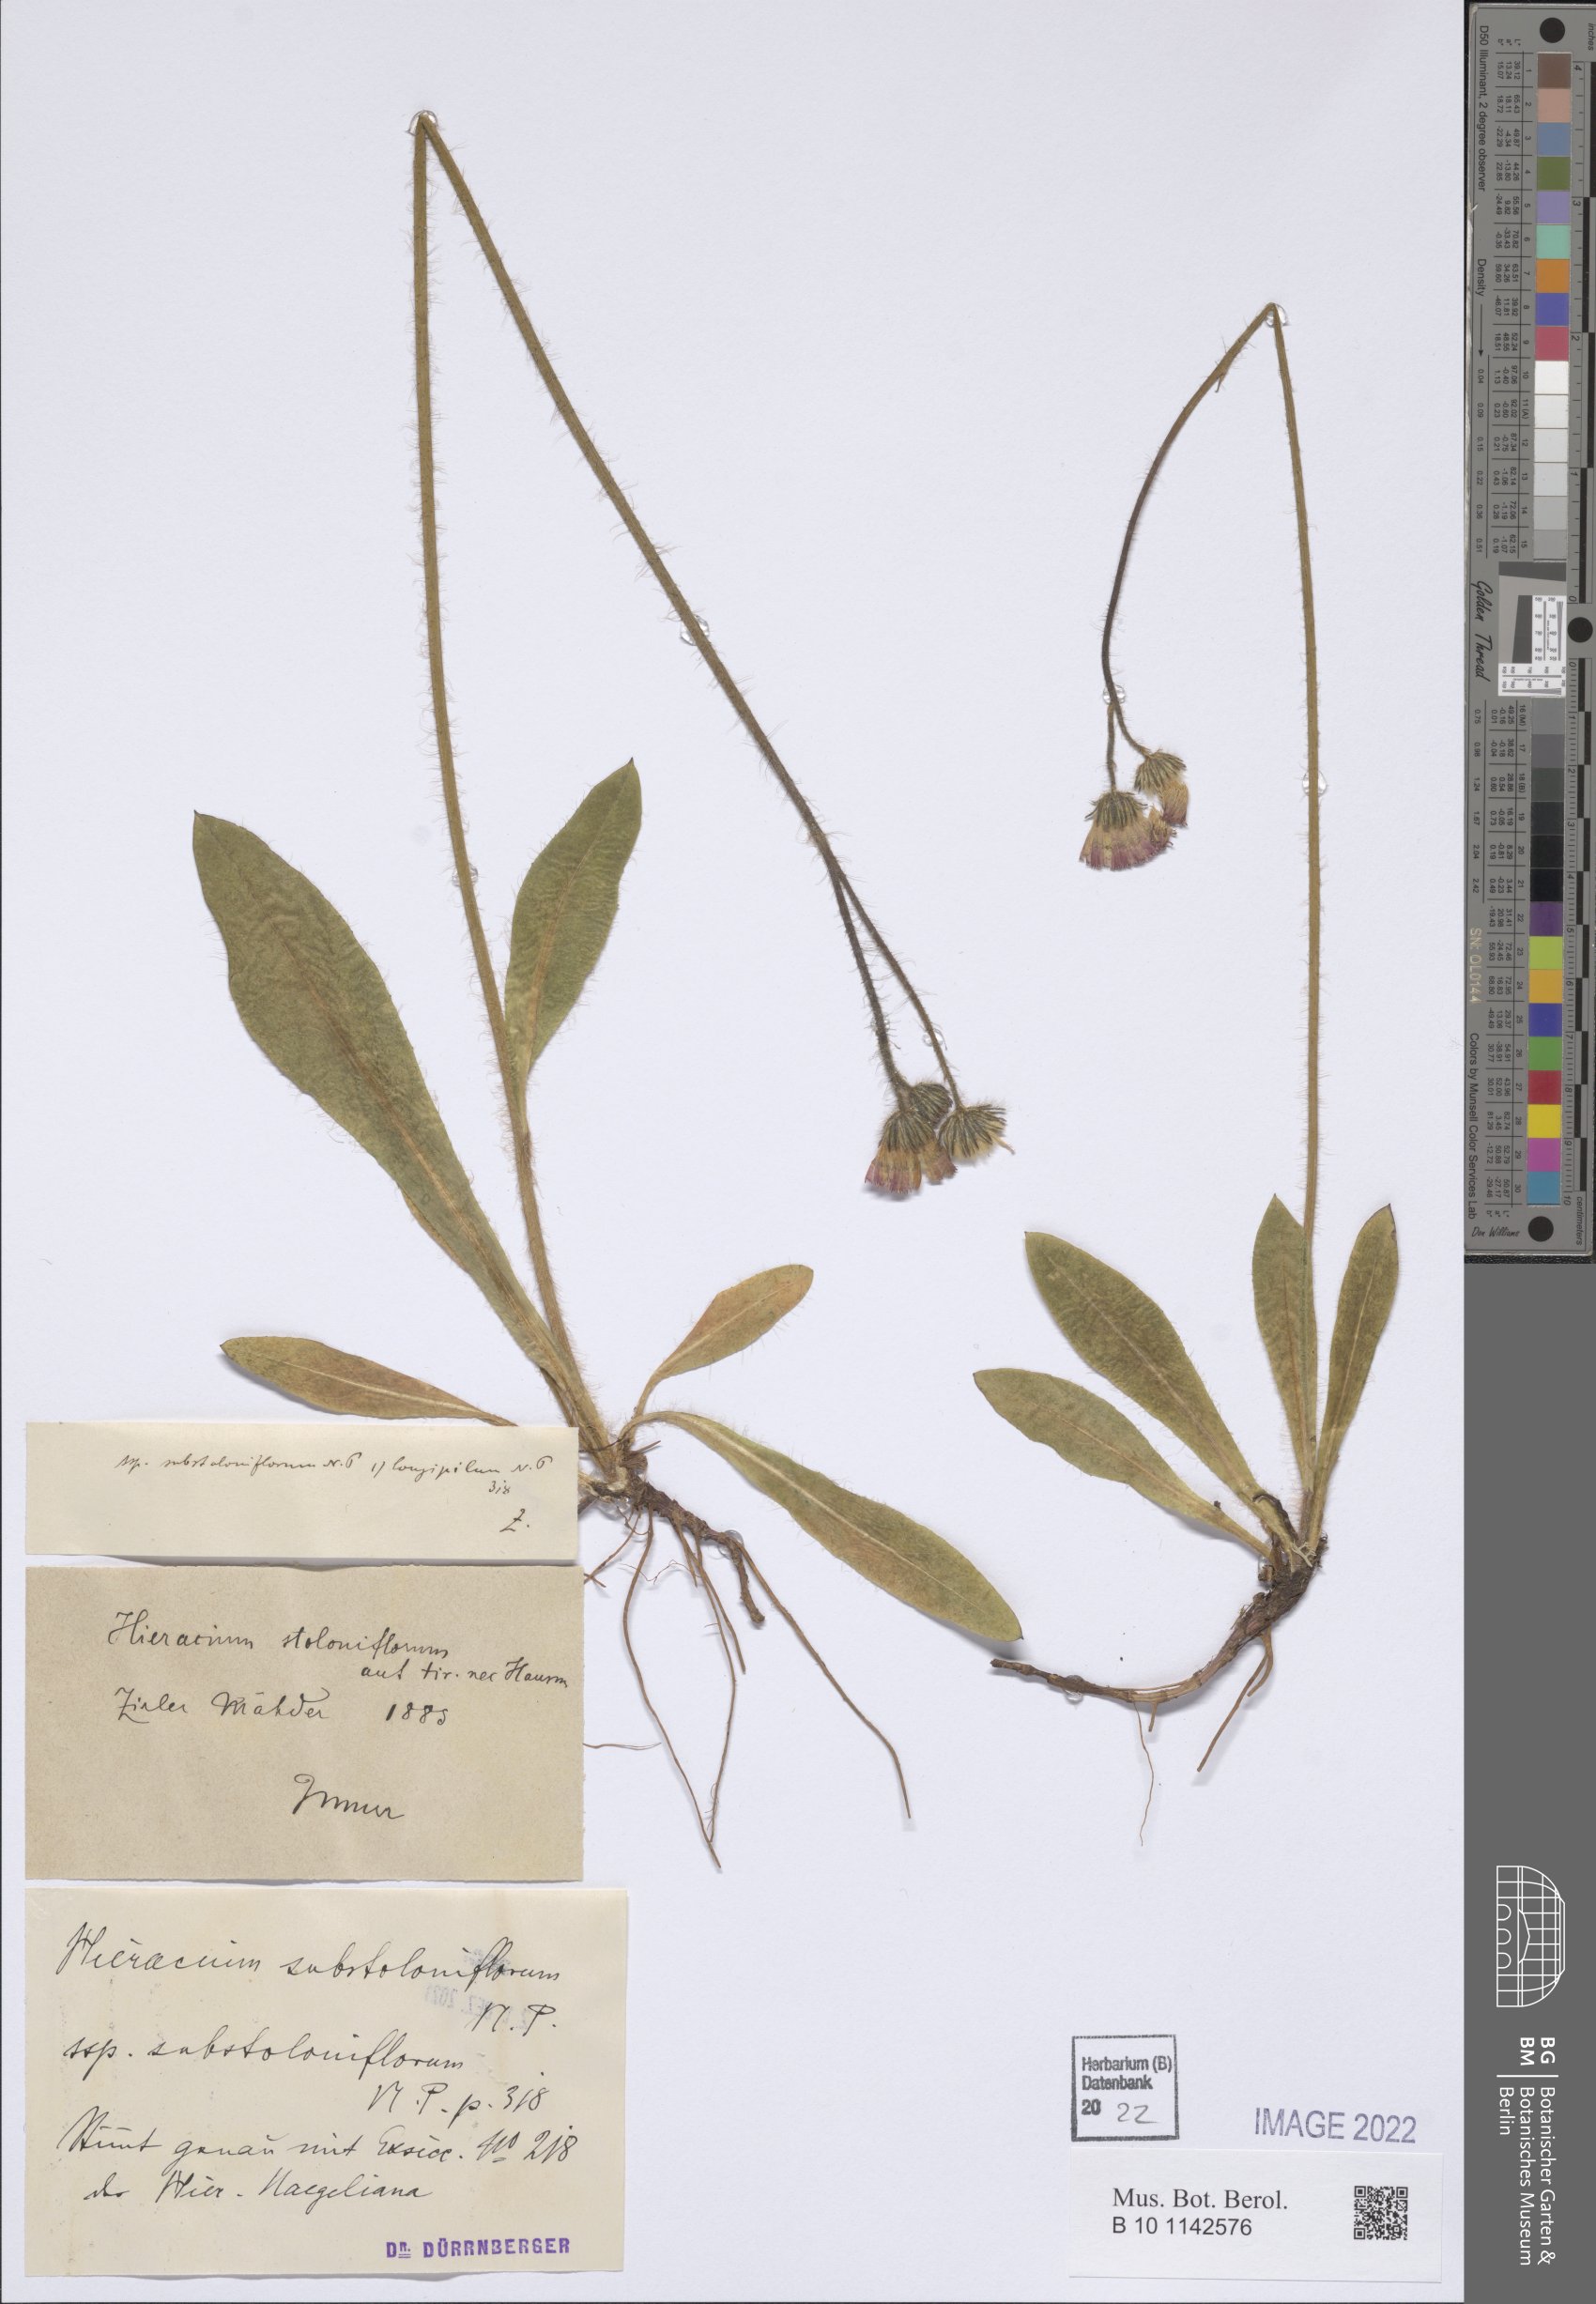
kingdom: Plantae
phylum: Tracheophyta
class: Magnoliopsida
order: Asterales
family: Asteraceae
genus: Pilosella
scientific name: Pilosella substoloniflora
